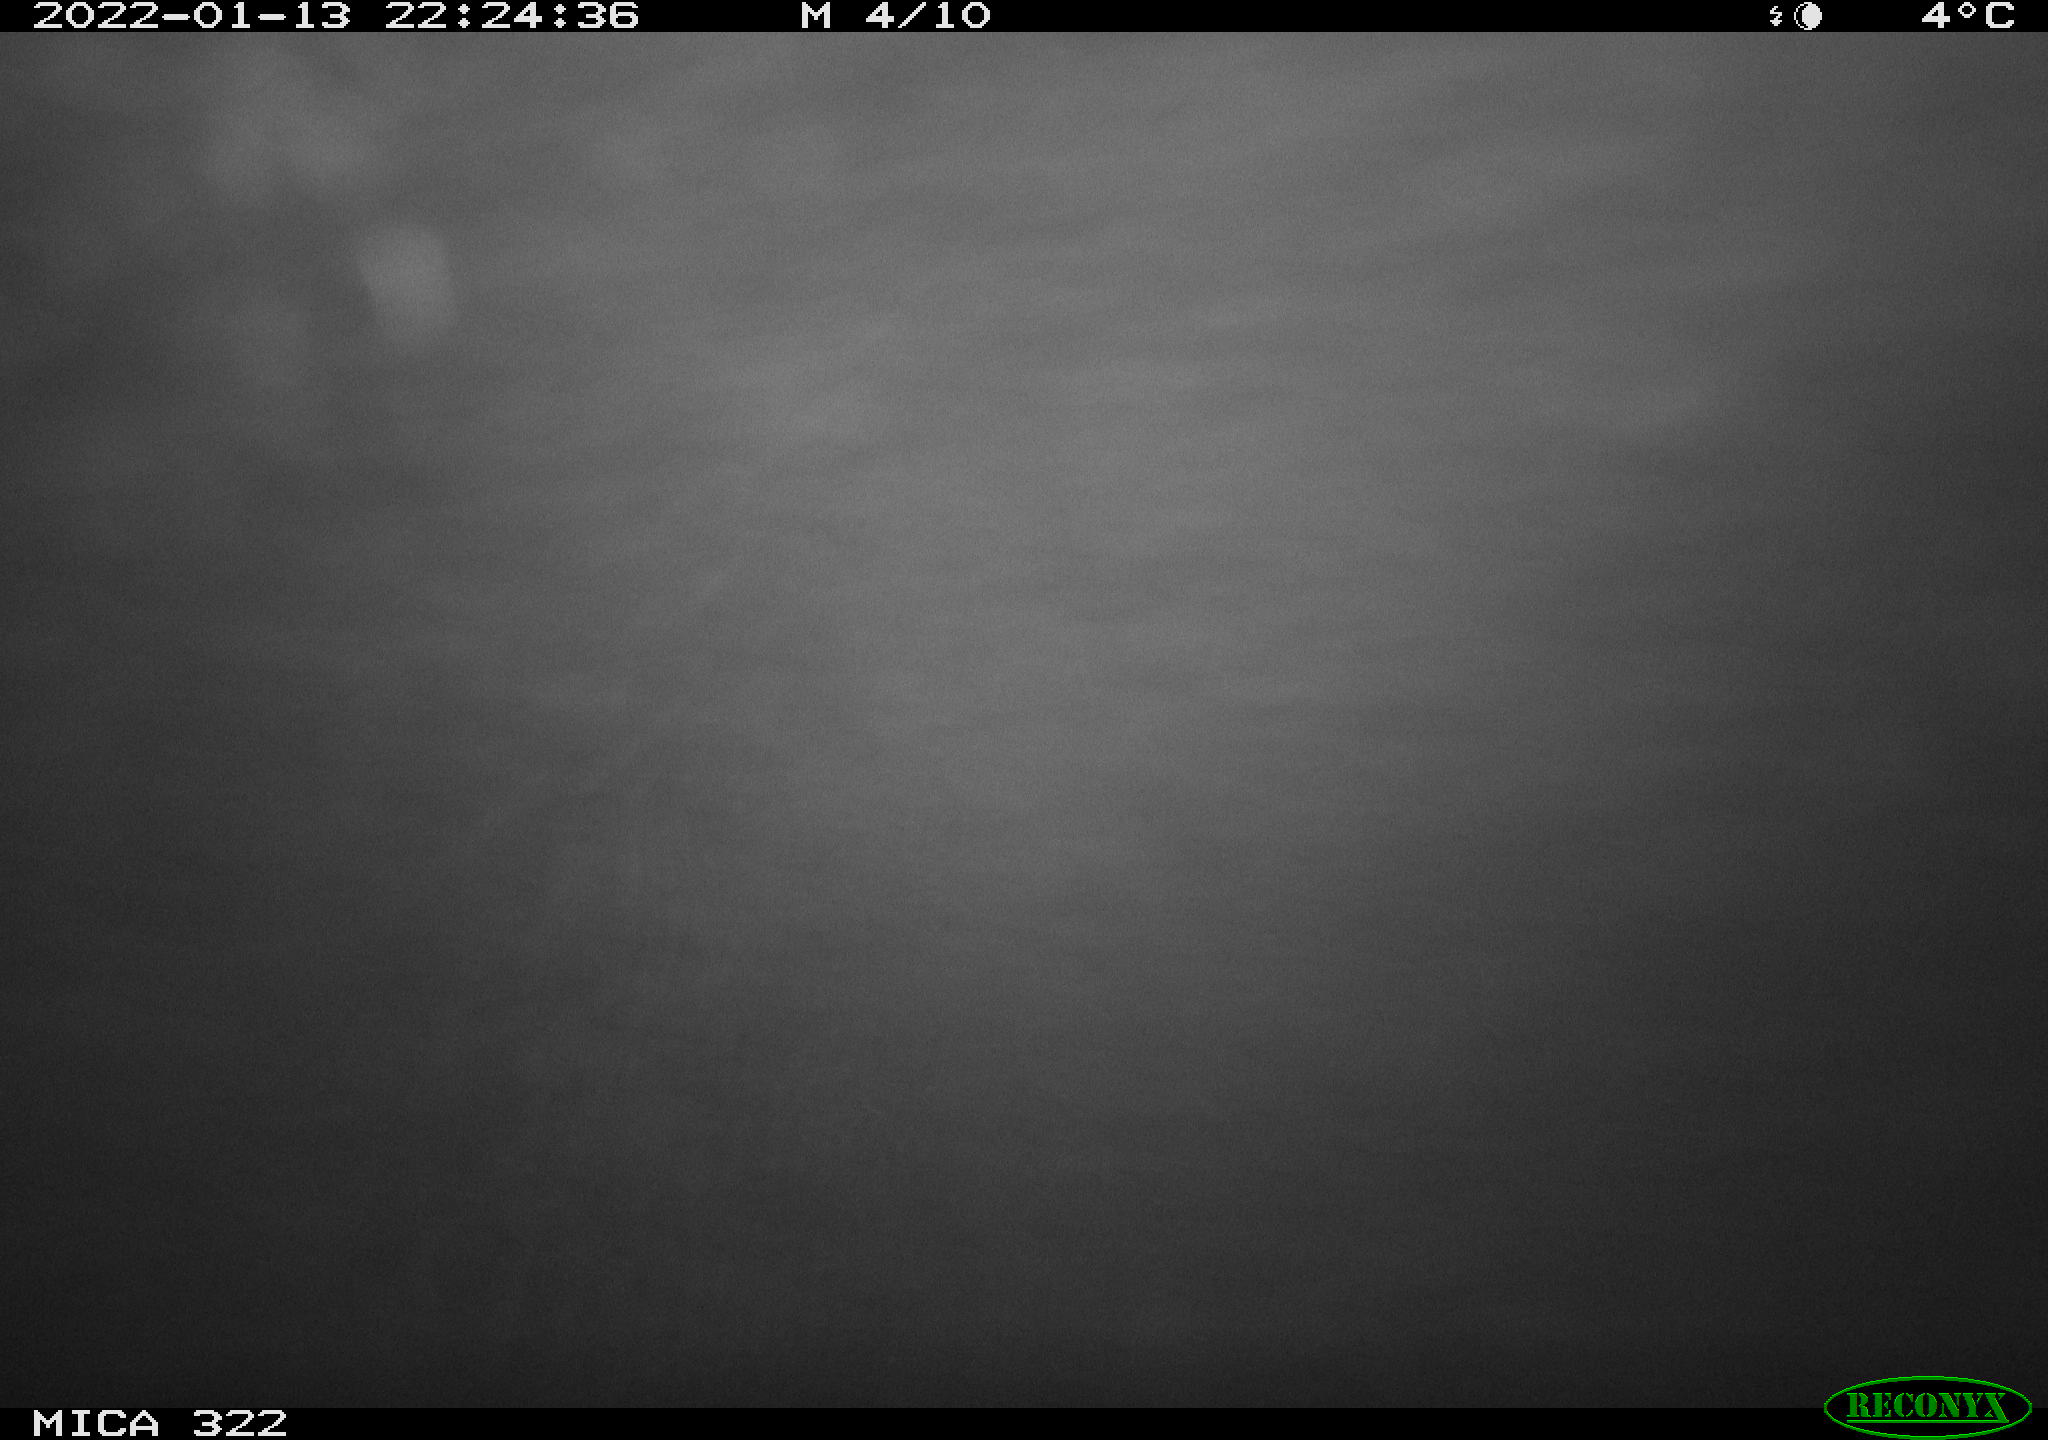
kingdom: Animalia
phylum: Chordata
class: Mammalia
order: Rodentia
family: Muridae
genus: Rattus
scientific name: Rattus norvegicus
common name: Brown rat
